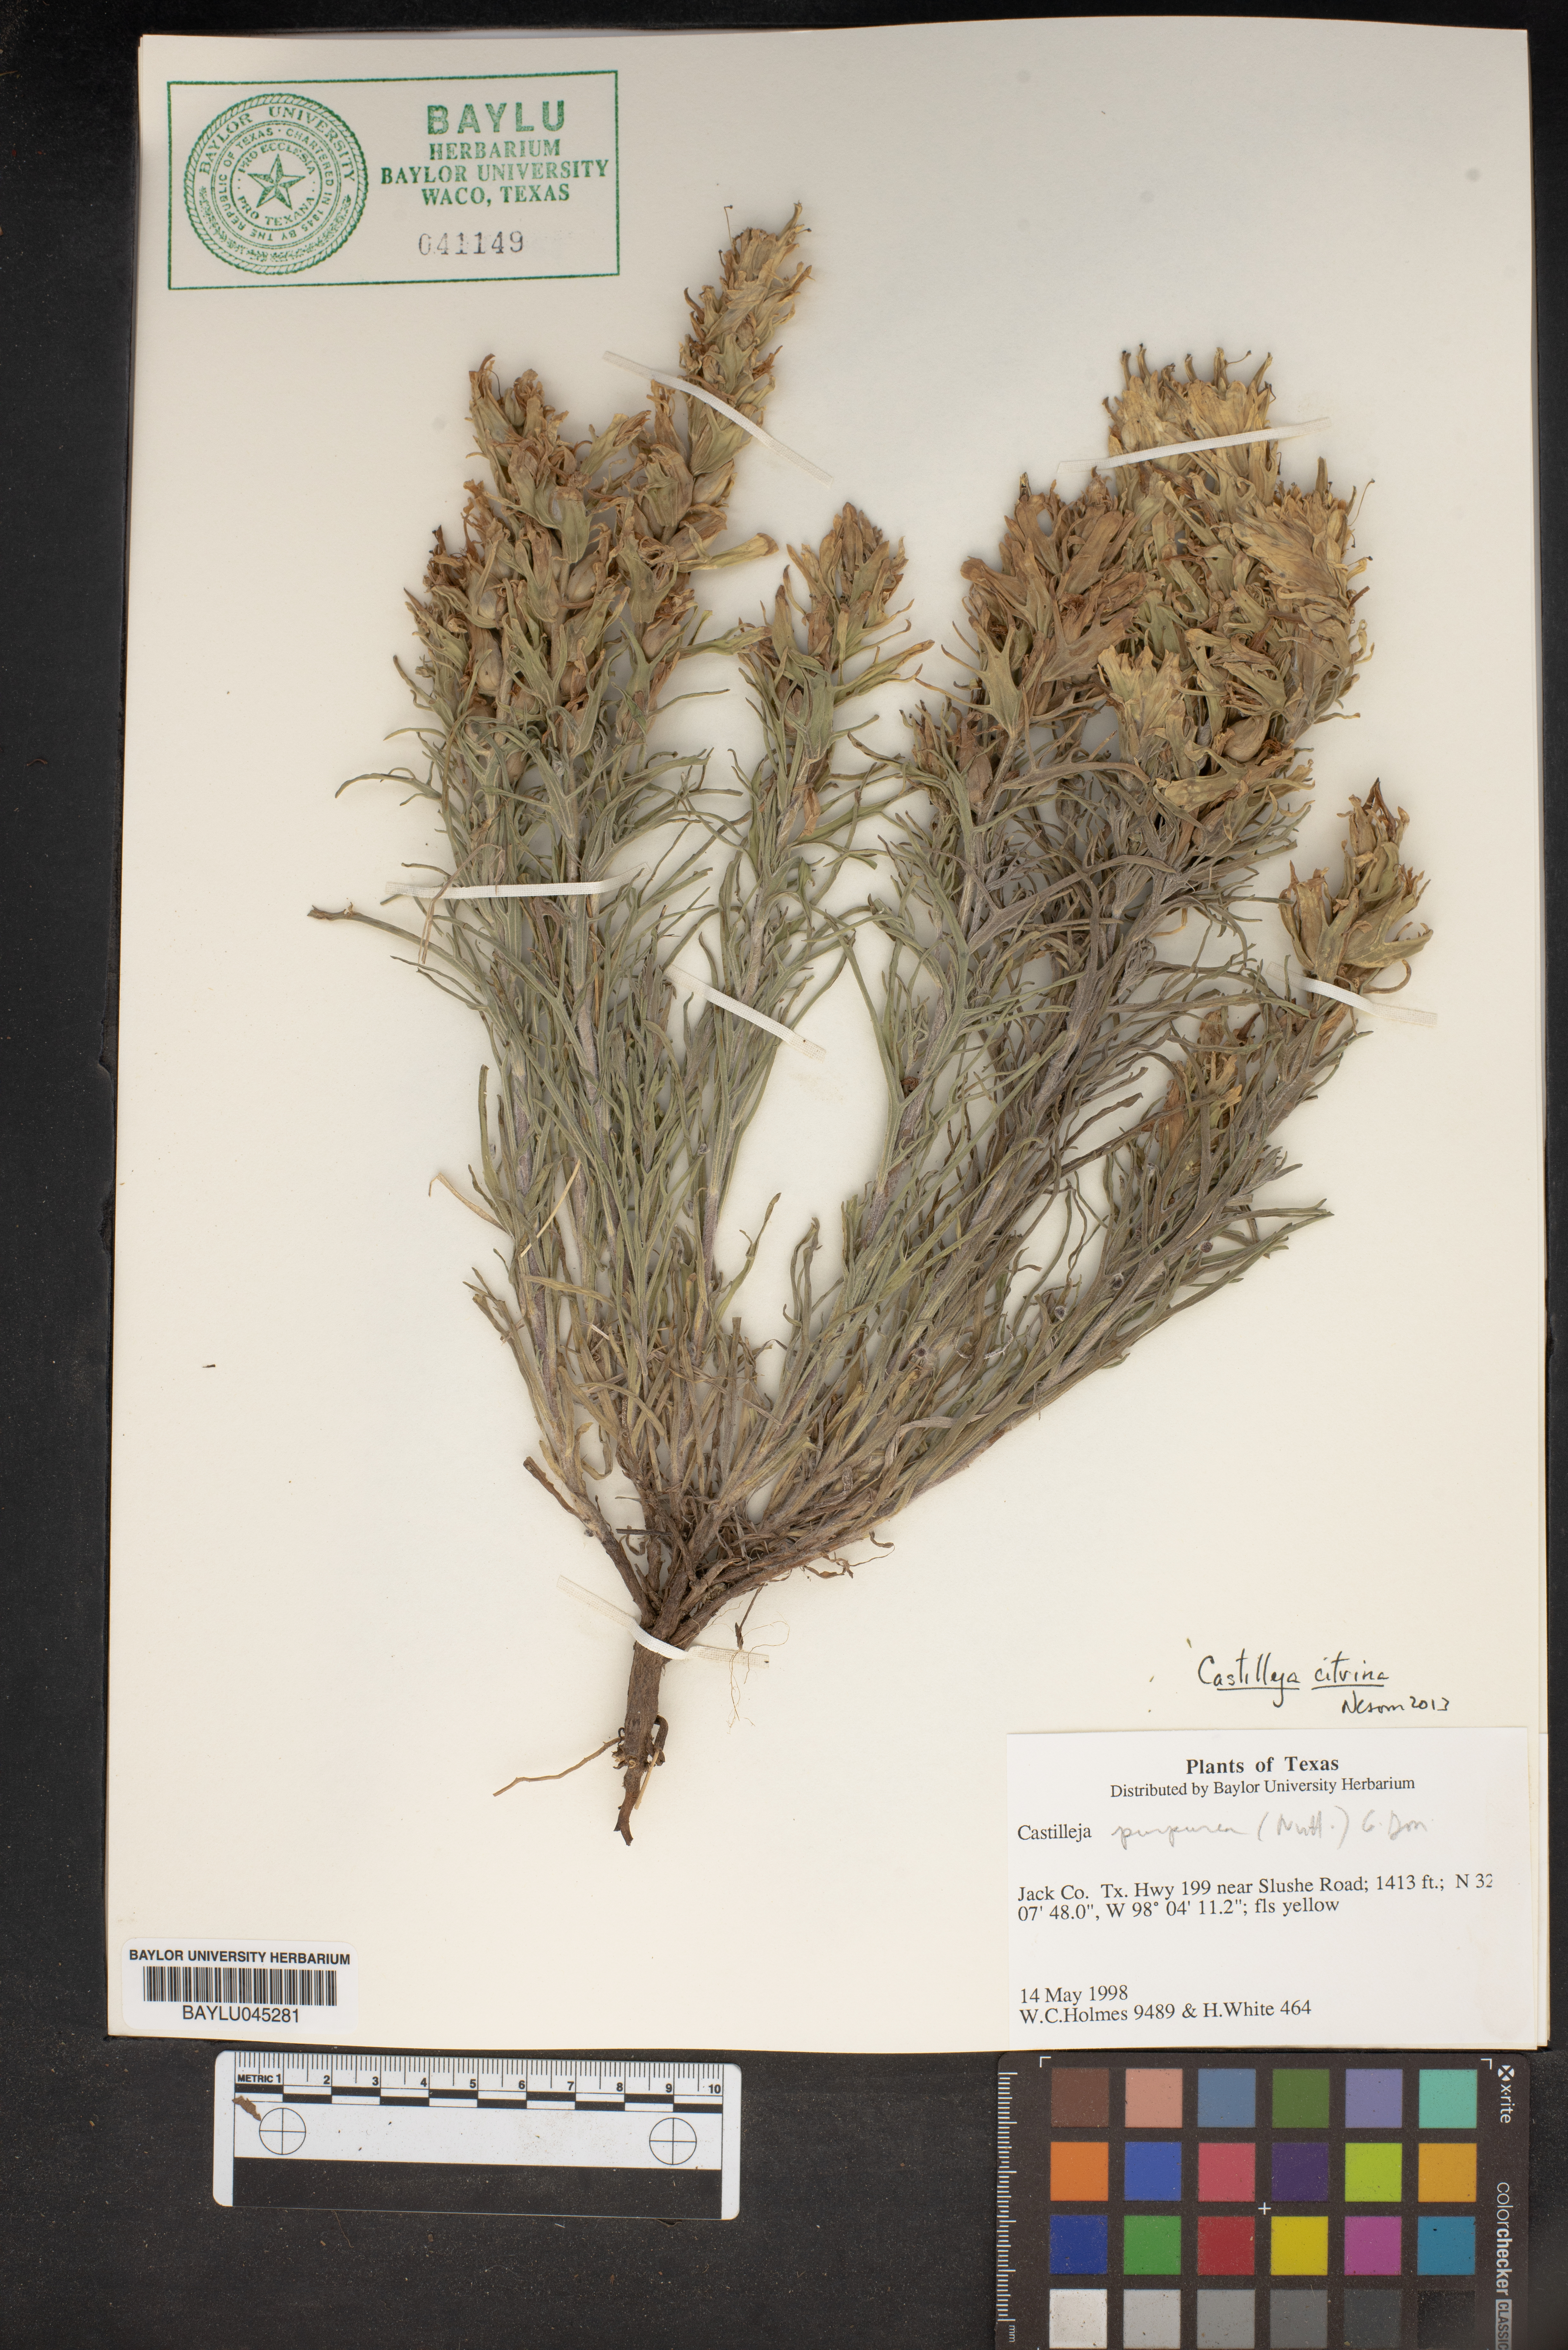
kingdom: Plantae
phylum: Tracheophyta
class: Magnoliopsida
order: Lamiales
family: Orobanchaceae
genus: Castilleja
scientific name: Castilleja citrina
